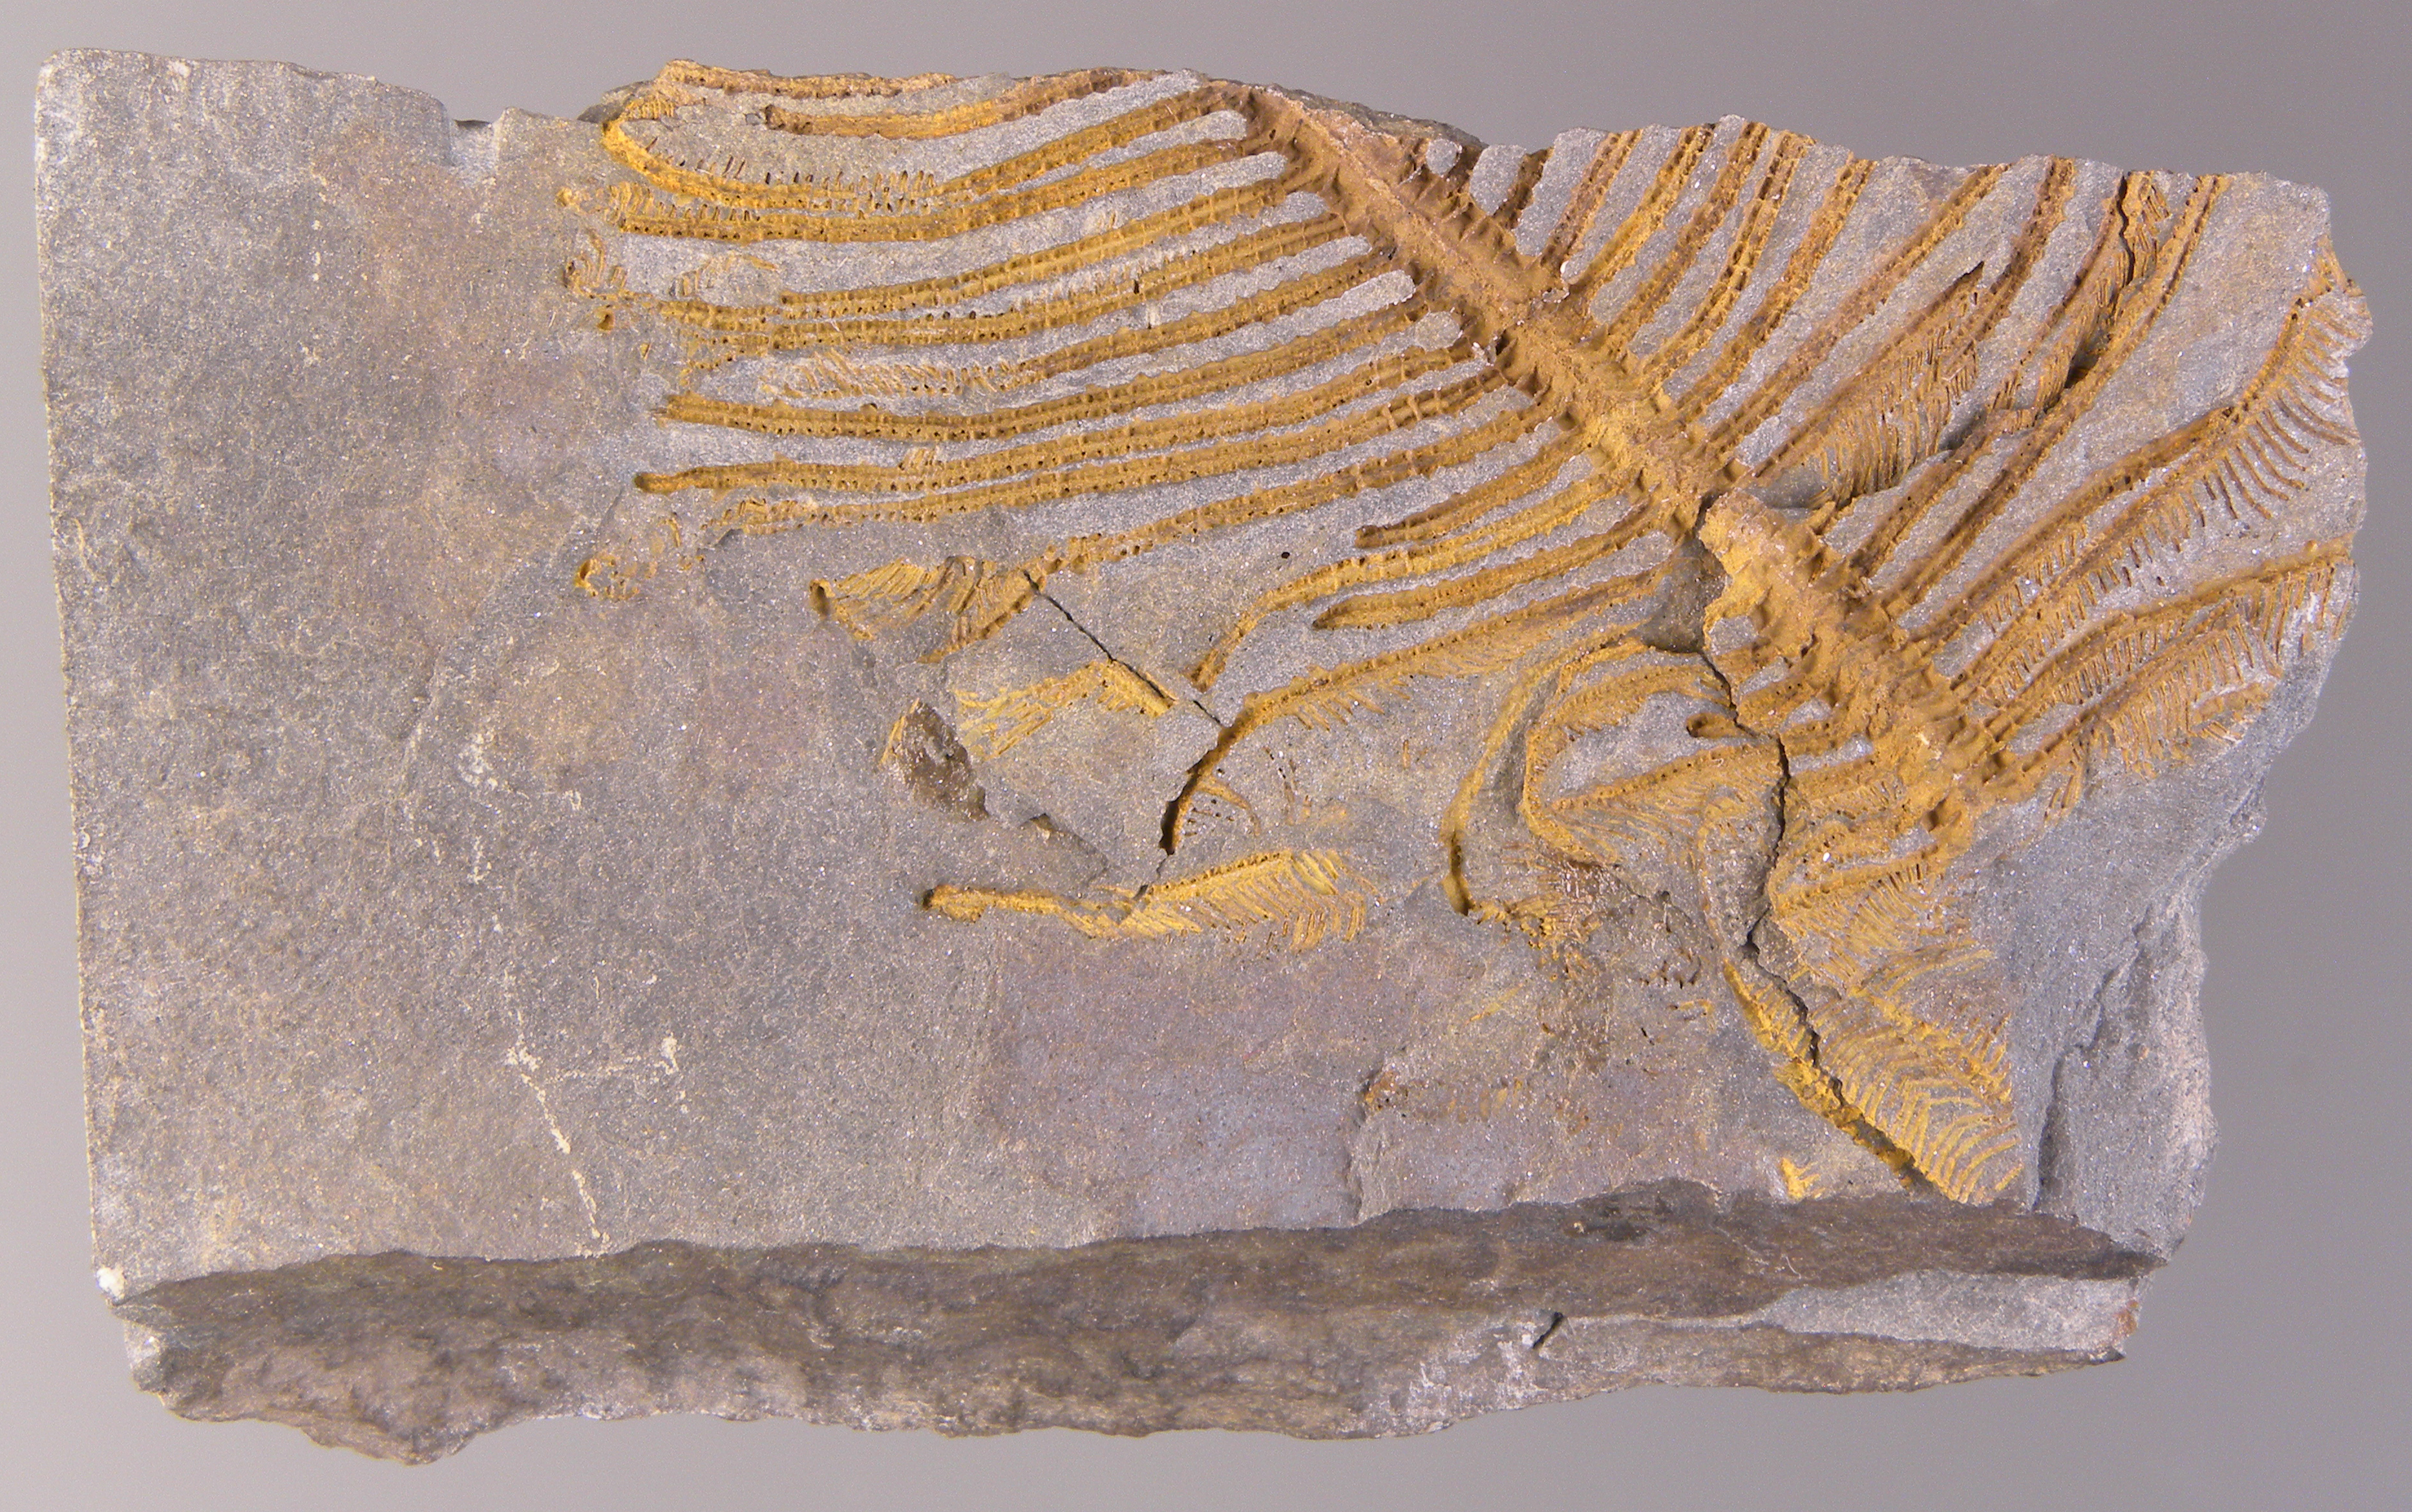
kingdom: Animalia
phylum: Echinodermata
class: Crinoidea
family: Melocrinitidae
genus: Ctenocrinus
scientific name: Ctenocrinus
